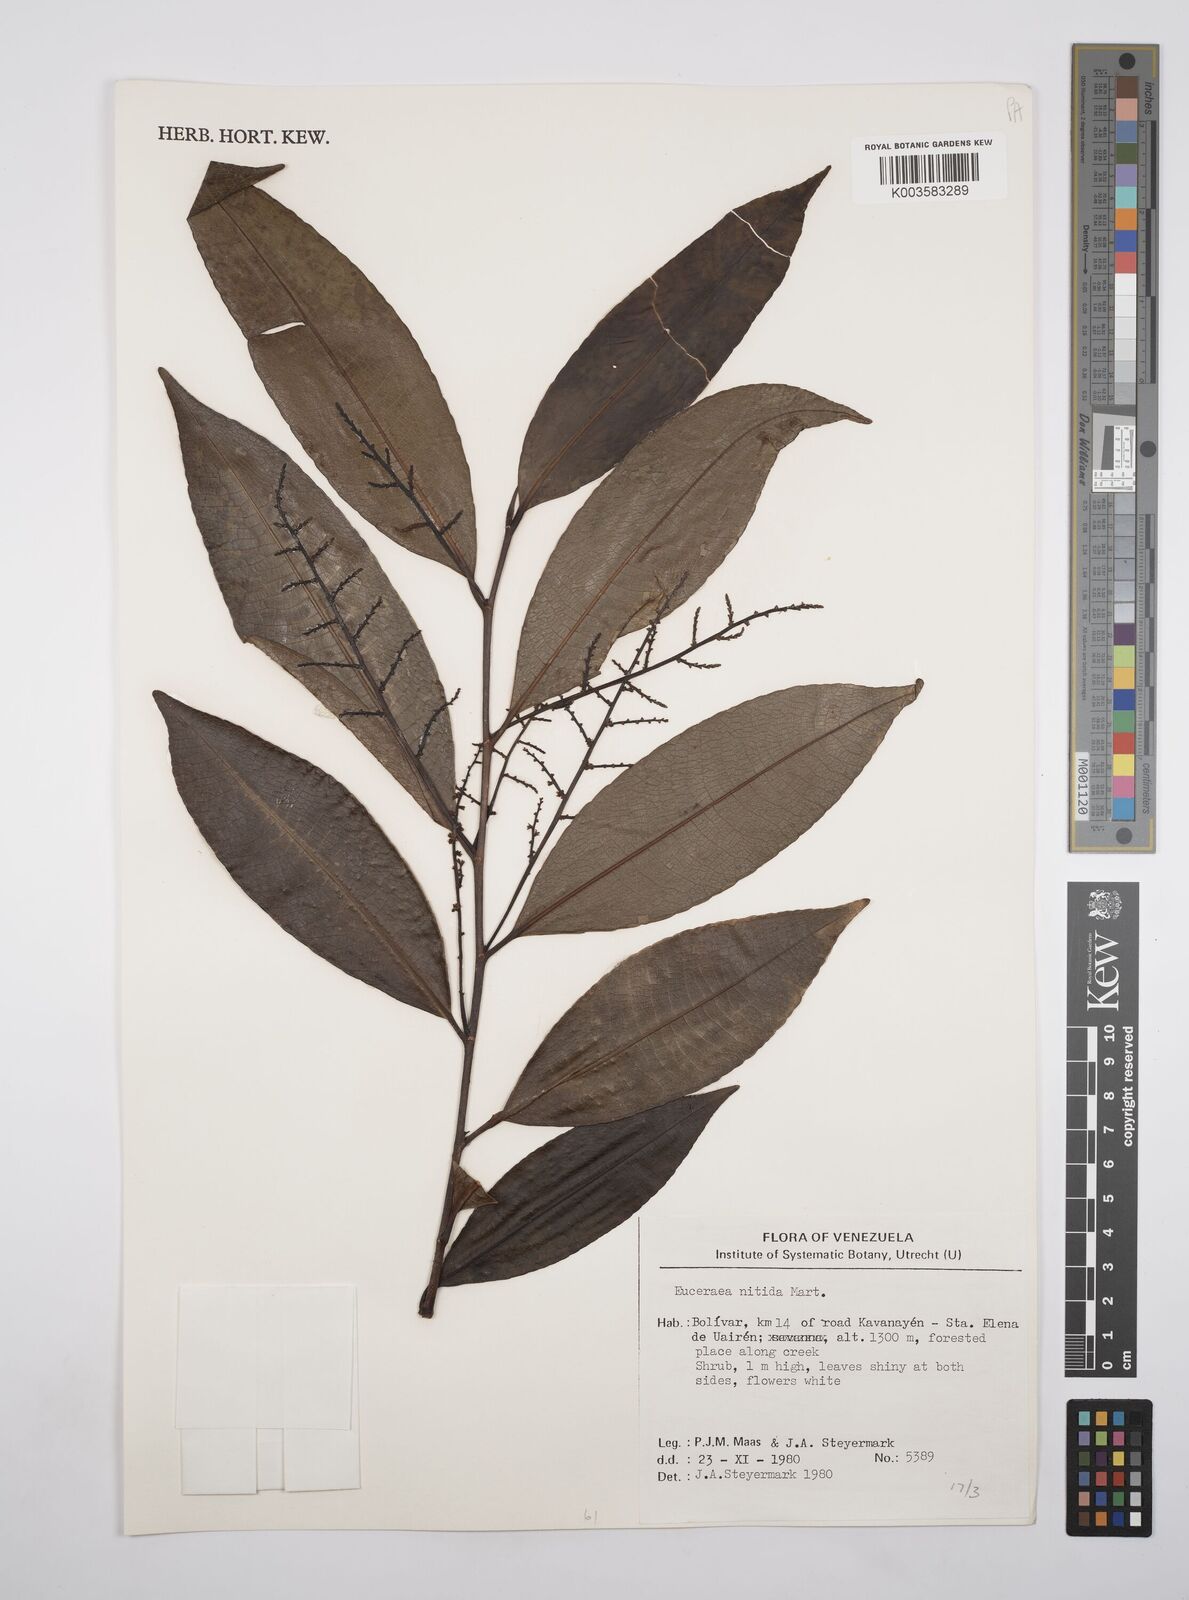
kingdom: Plantae
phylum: Tracheophyta
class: Magnoliopsida
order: Malpighiales
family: Salicaceae
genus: Casearia
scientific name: Casearia euceraea
